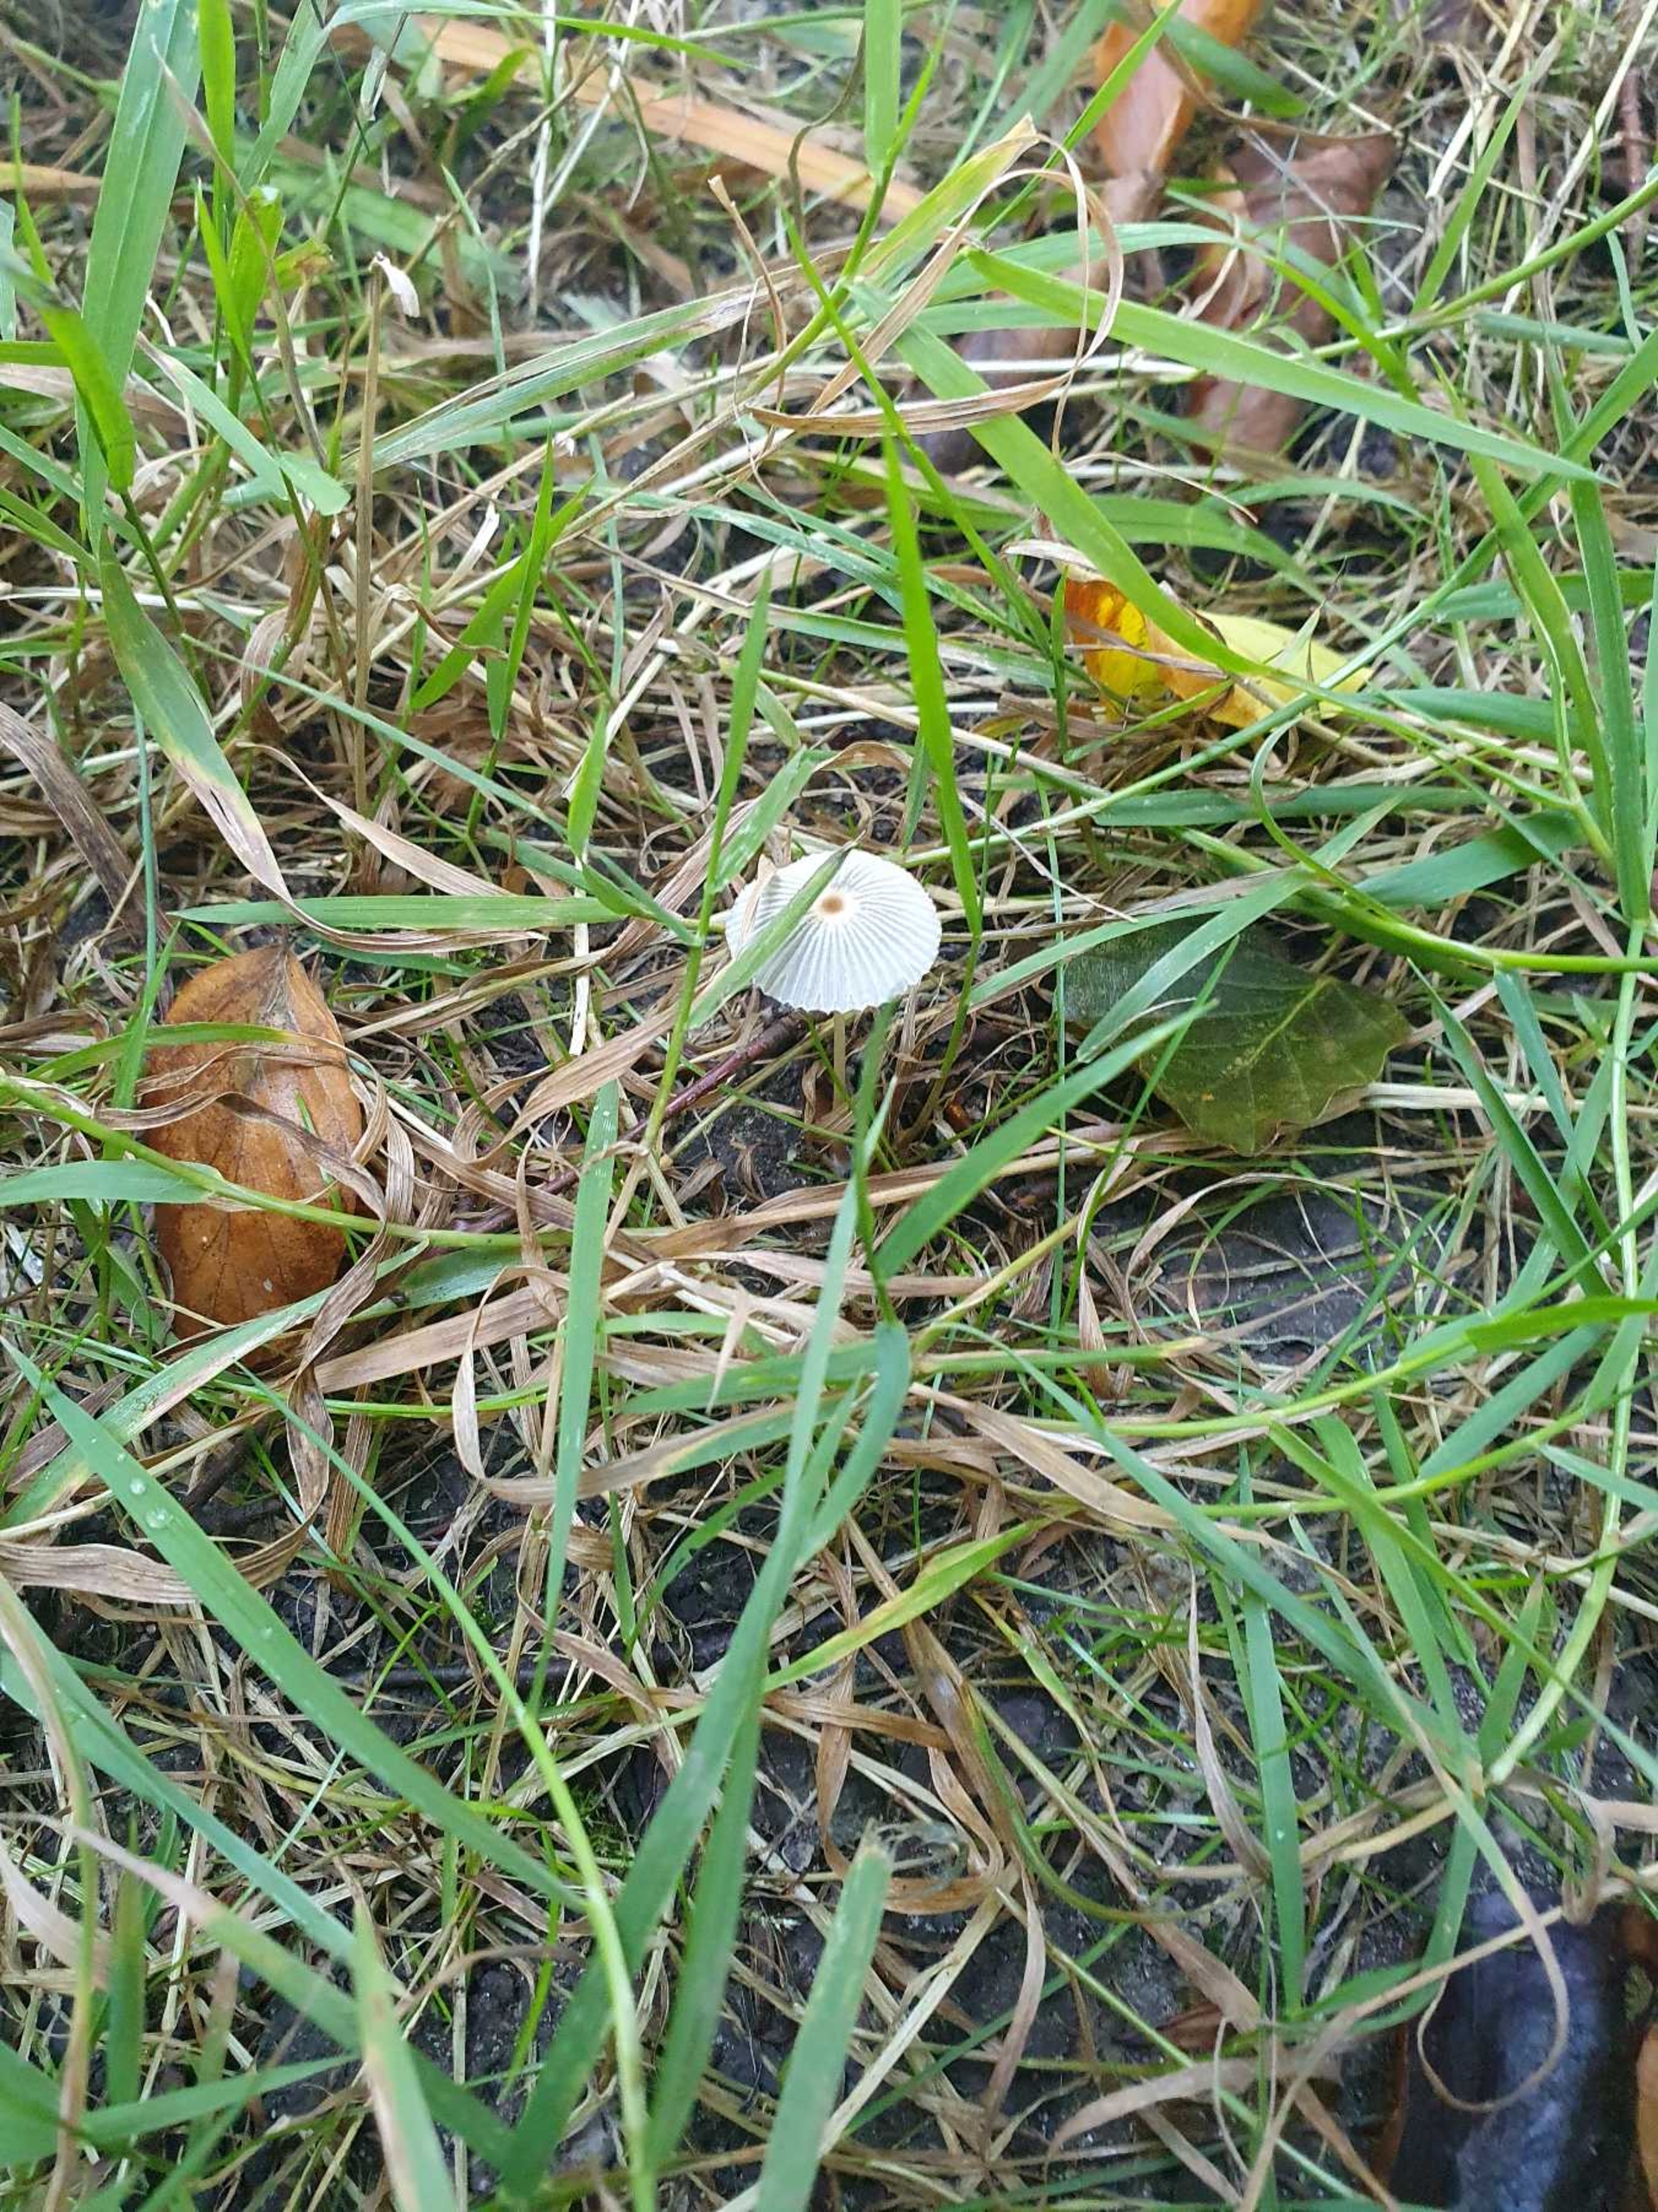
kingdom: Fungi
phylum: Basidiomycota
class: Agaricomycetes
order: Agaricales
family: Psathyrellaceae
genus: Parasola
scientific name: Parasola
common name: Hjulhat
